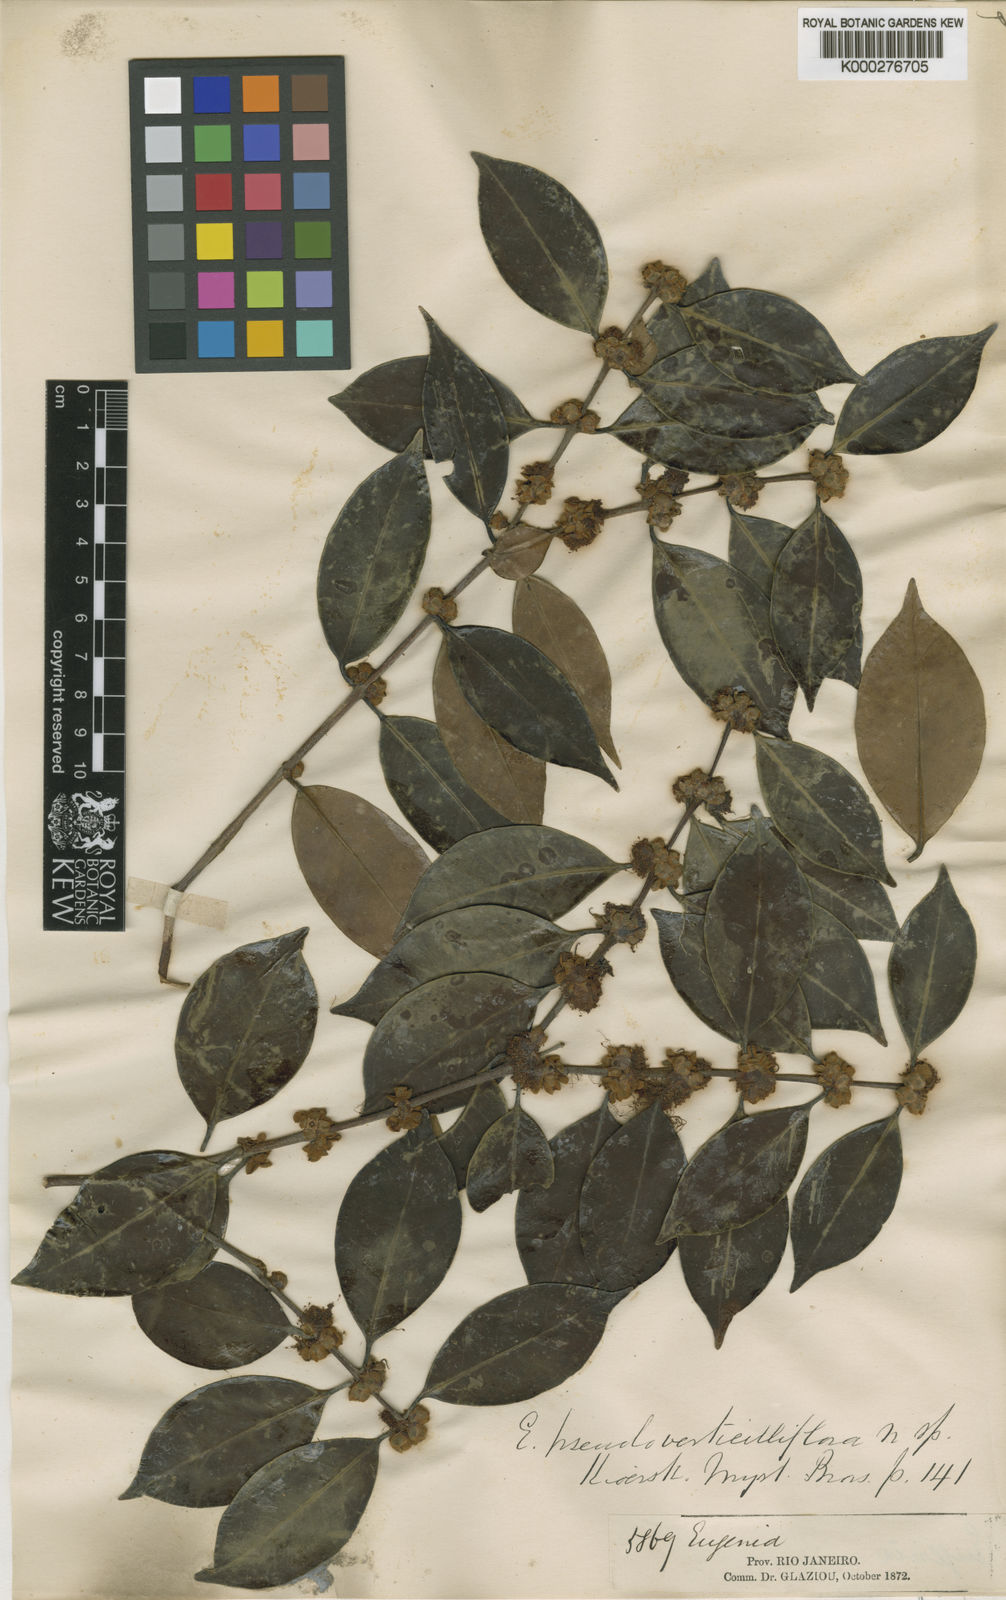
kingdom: Plantae
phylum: Tracheophyta
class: Magnoliopsida
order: Myrtales
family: Myrtaceae
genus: Eugenia
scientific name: Eugenia verticillata
